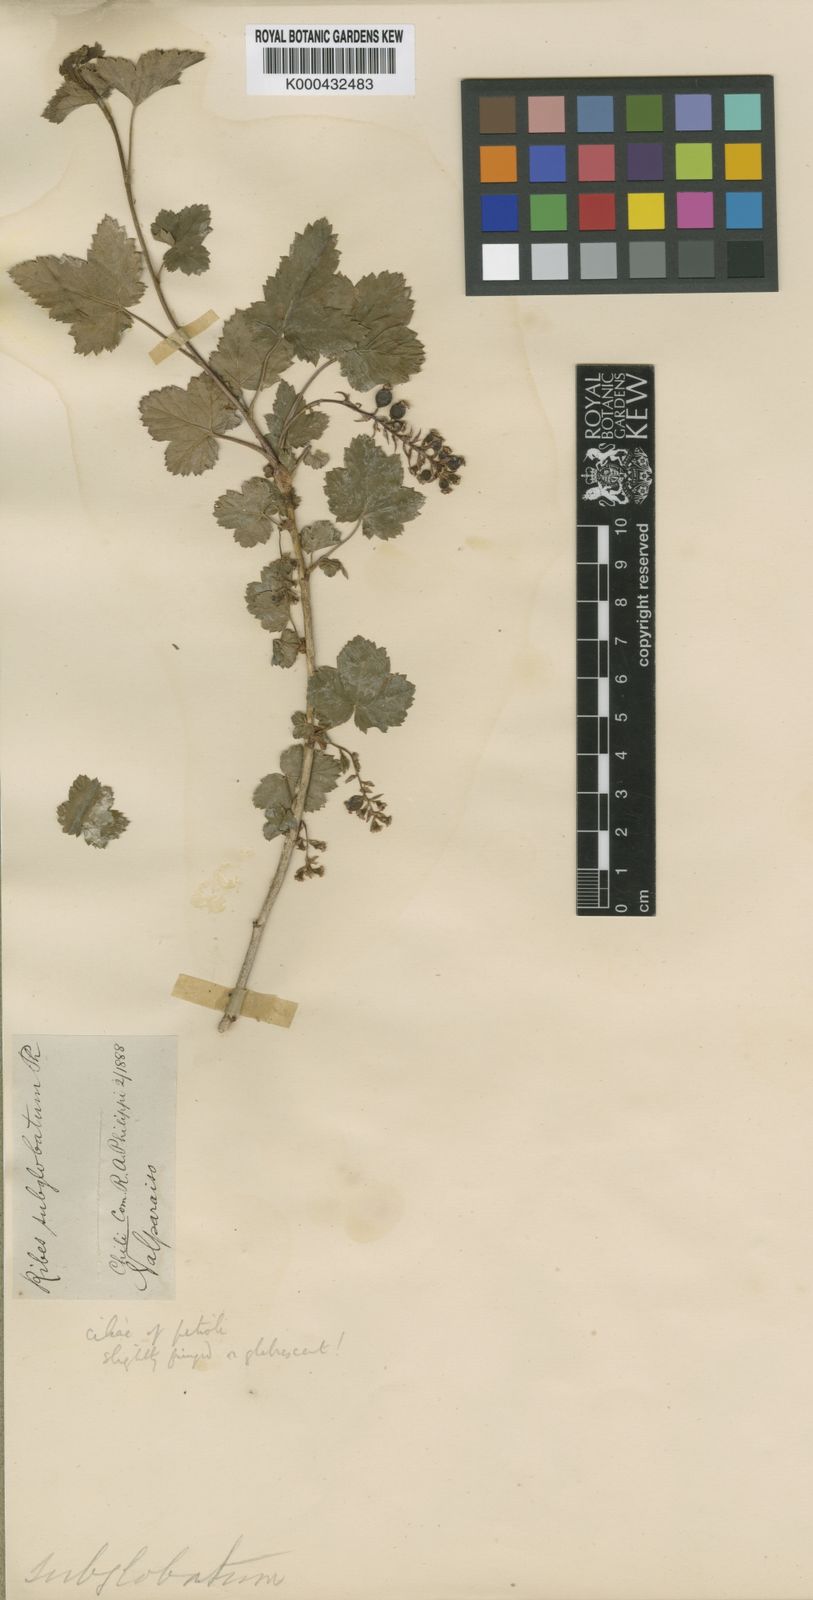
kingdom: Plantae
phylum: Tracheophyta
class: Magnoliopsida
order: Saxifragales
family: Grossulariaceae
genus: Ribes
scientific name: Ribes punctatum
